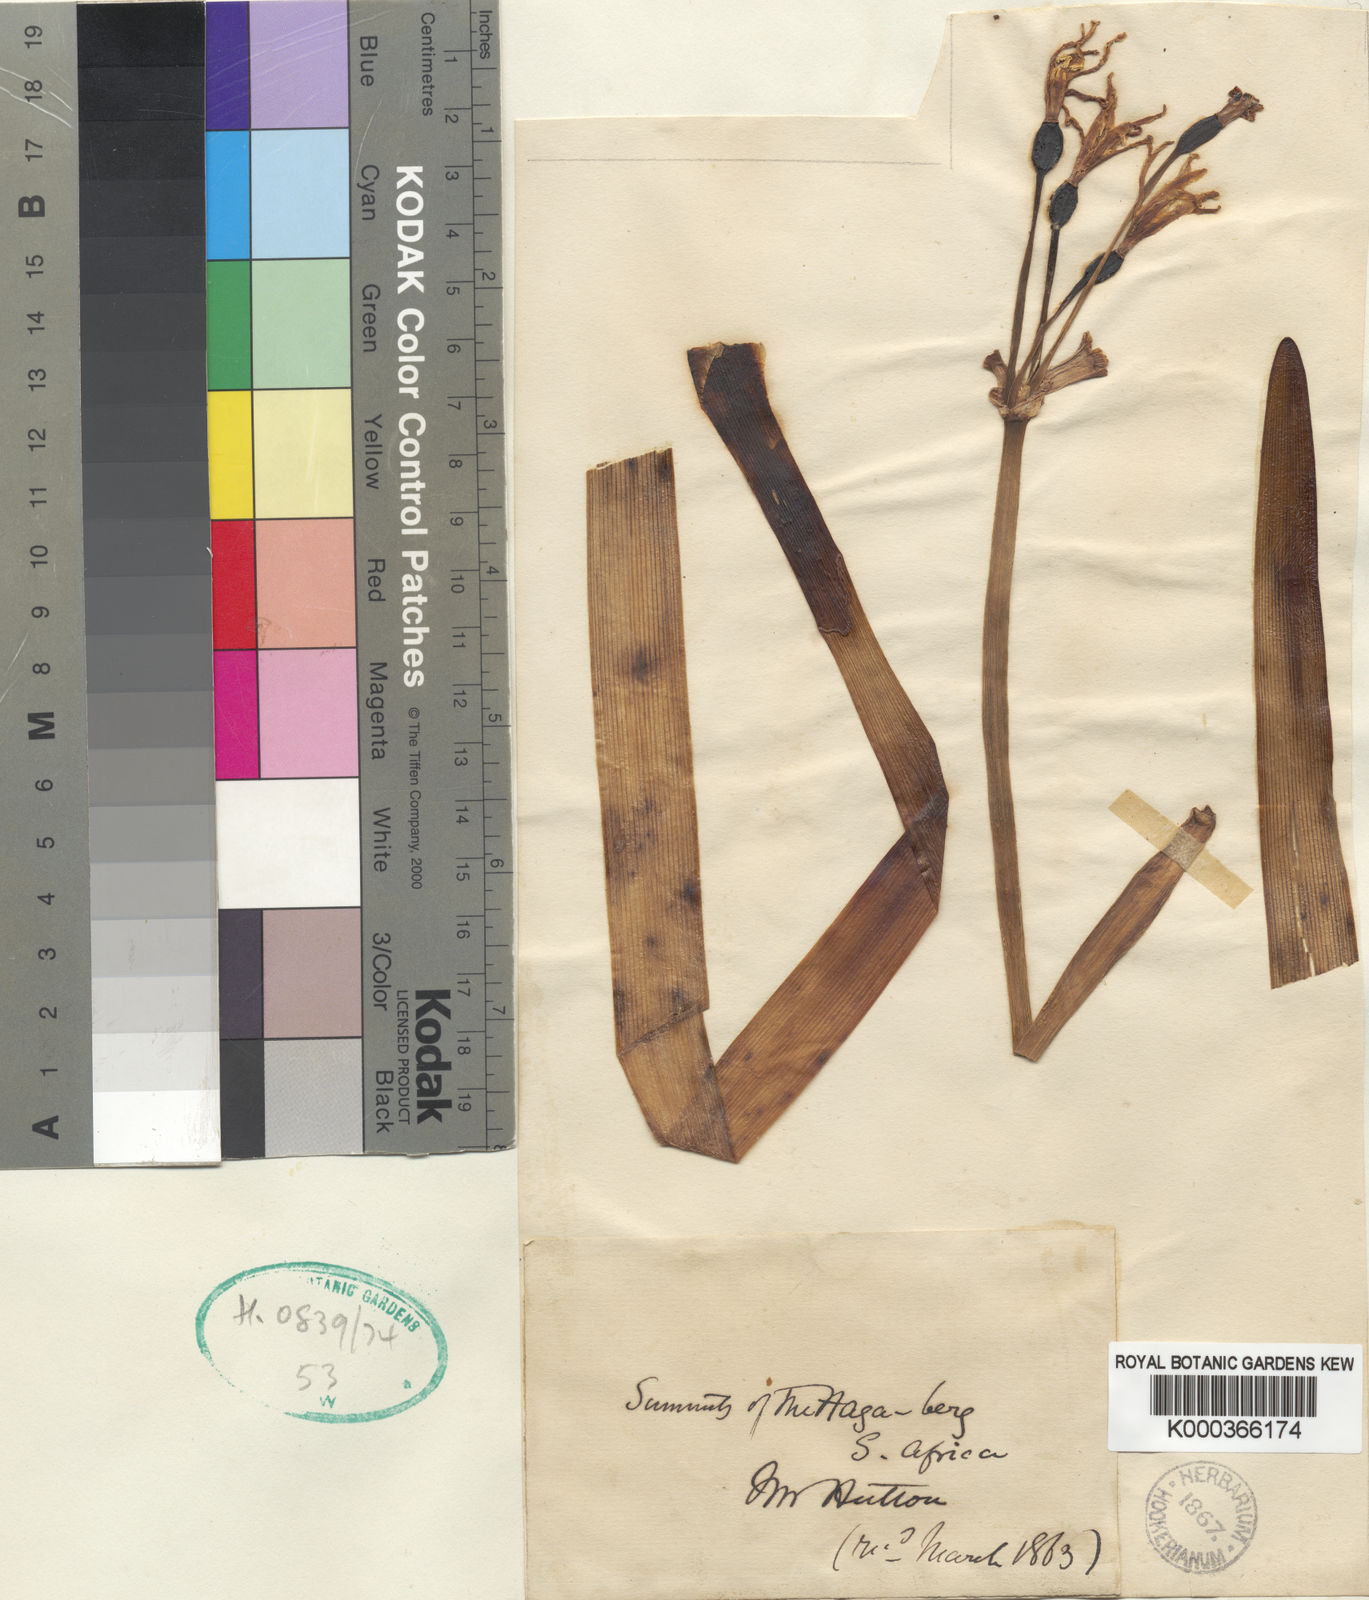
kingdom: Plantae
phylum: Tracheophyta
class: Liliopsida
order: Asparagales
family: Amaryllidaceae
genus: Cyrtanthus
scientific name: Cyrtanthus breviflorus
